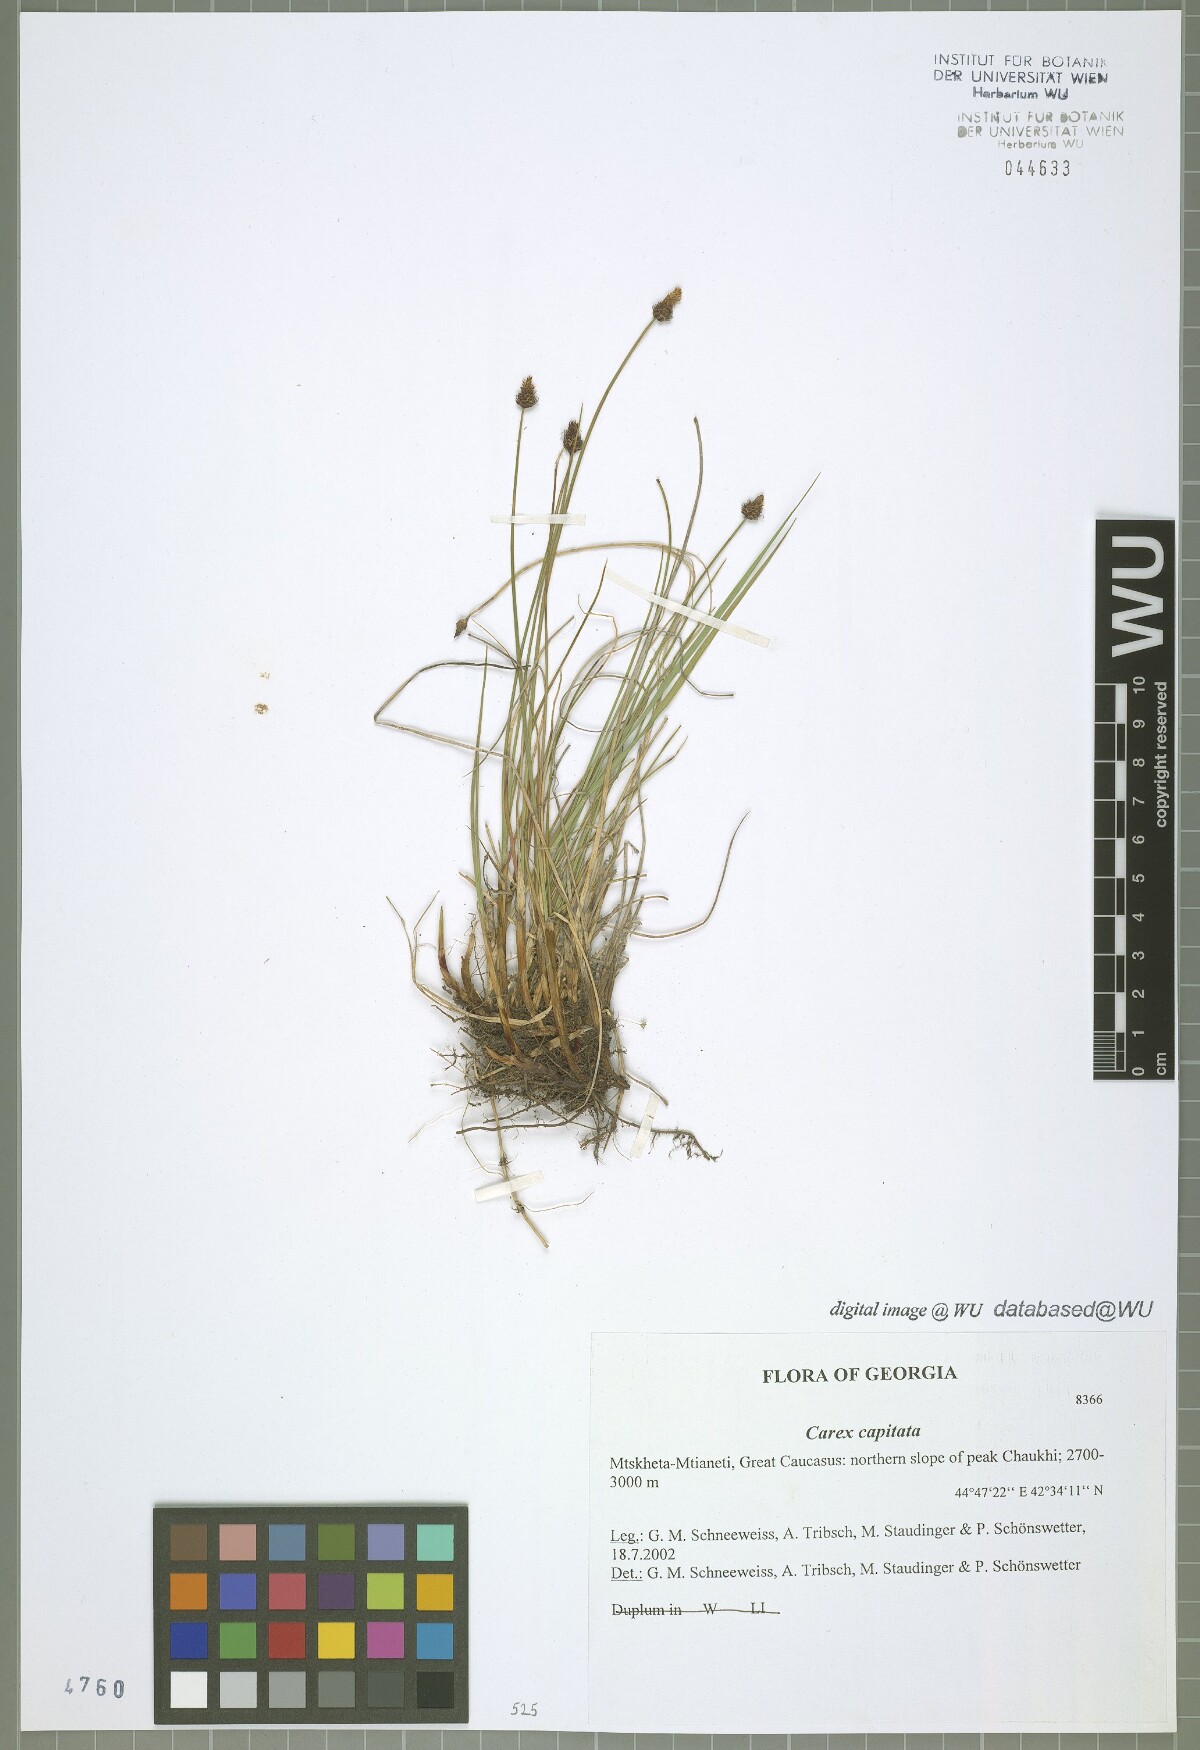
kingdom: Plantae
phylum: Tracheophyta
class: Liliopsida
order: Poales
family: Cyperaceae
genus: Carex
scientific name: Carex capitata
